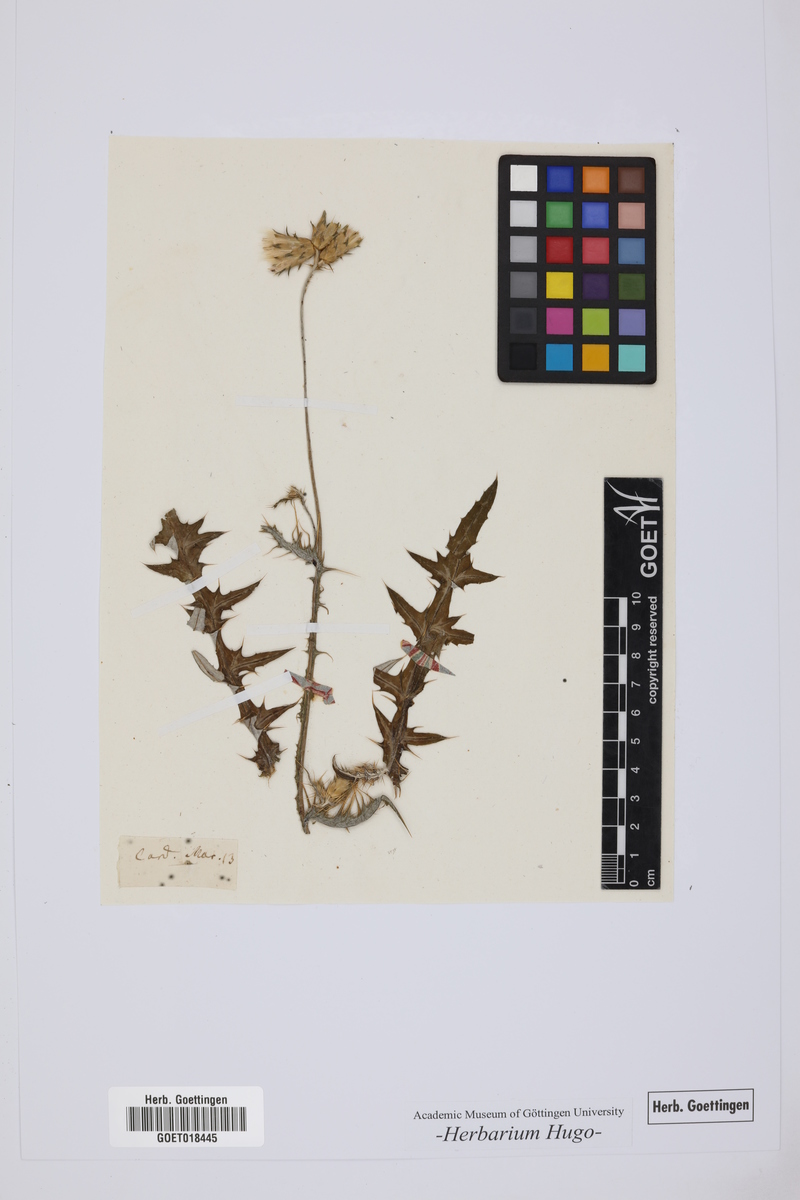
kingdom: Plantae
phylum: Tracheophyta
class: Magnoliopsida
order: Asterales
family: Asteraceae
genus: Silybum
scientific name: Silybum marianum
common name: Milk thistle
